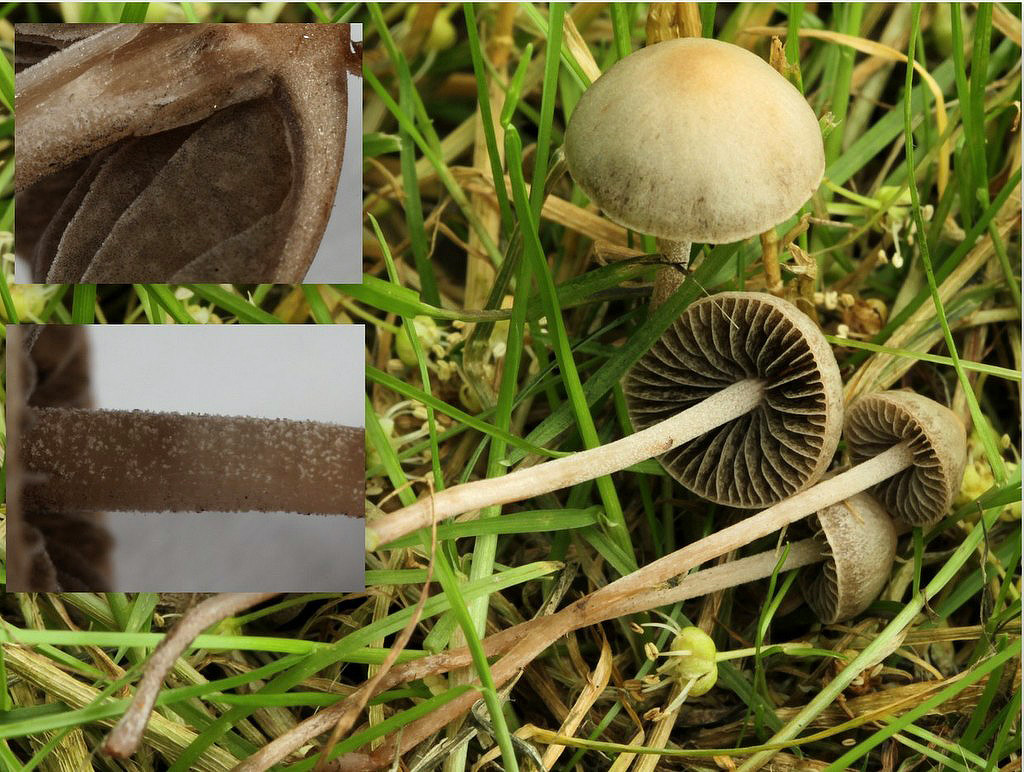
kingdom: Fungi
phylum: Basidiomycota
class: Agaricomycetes
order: Agaricales
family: Bolbitiaceae
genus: Panaeolus
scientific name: Panaeolus olivaceus
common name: lysstokket glanshat
